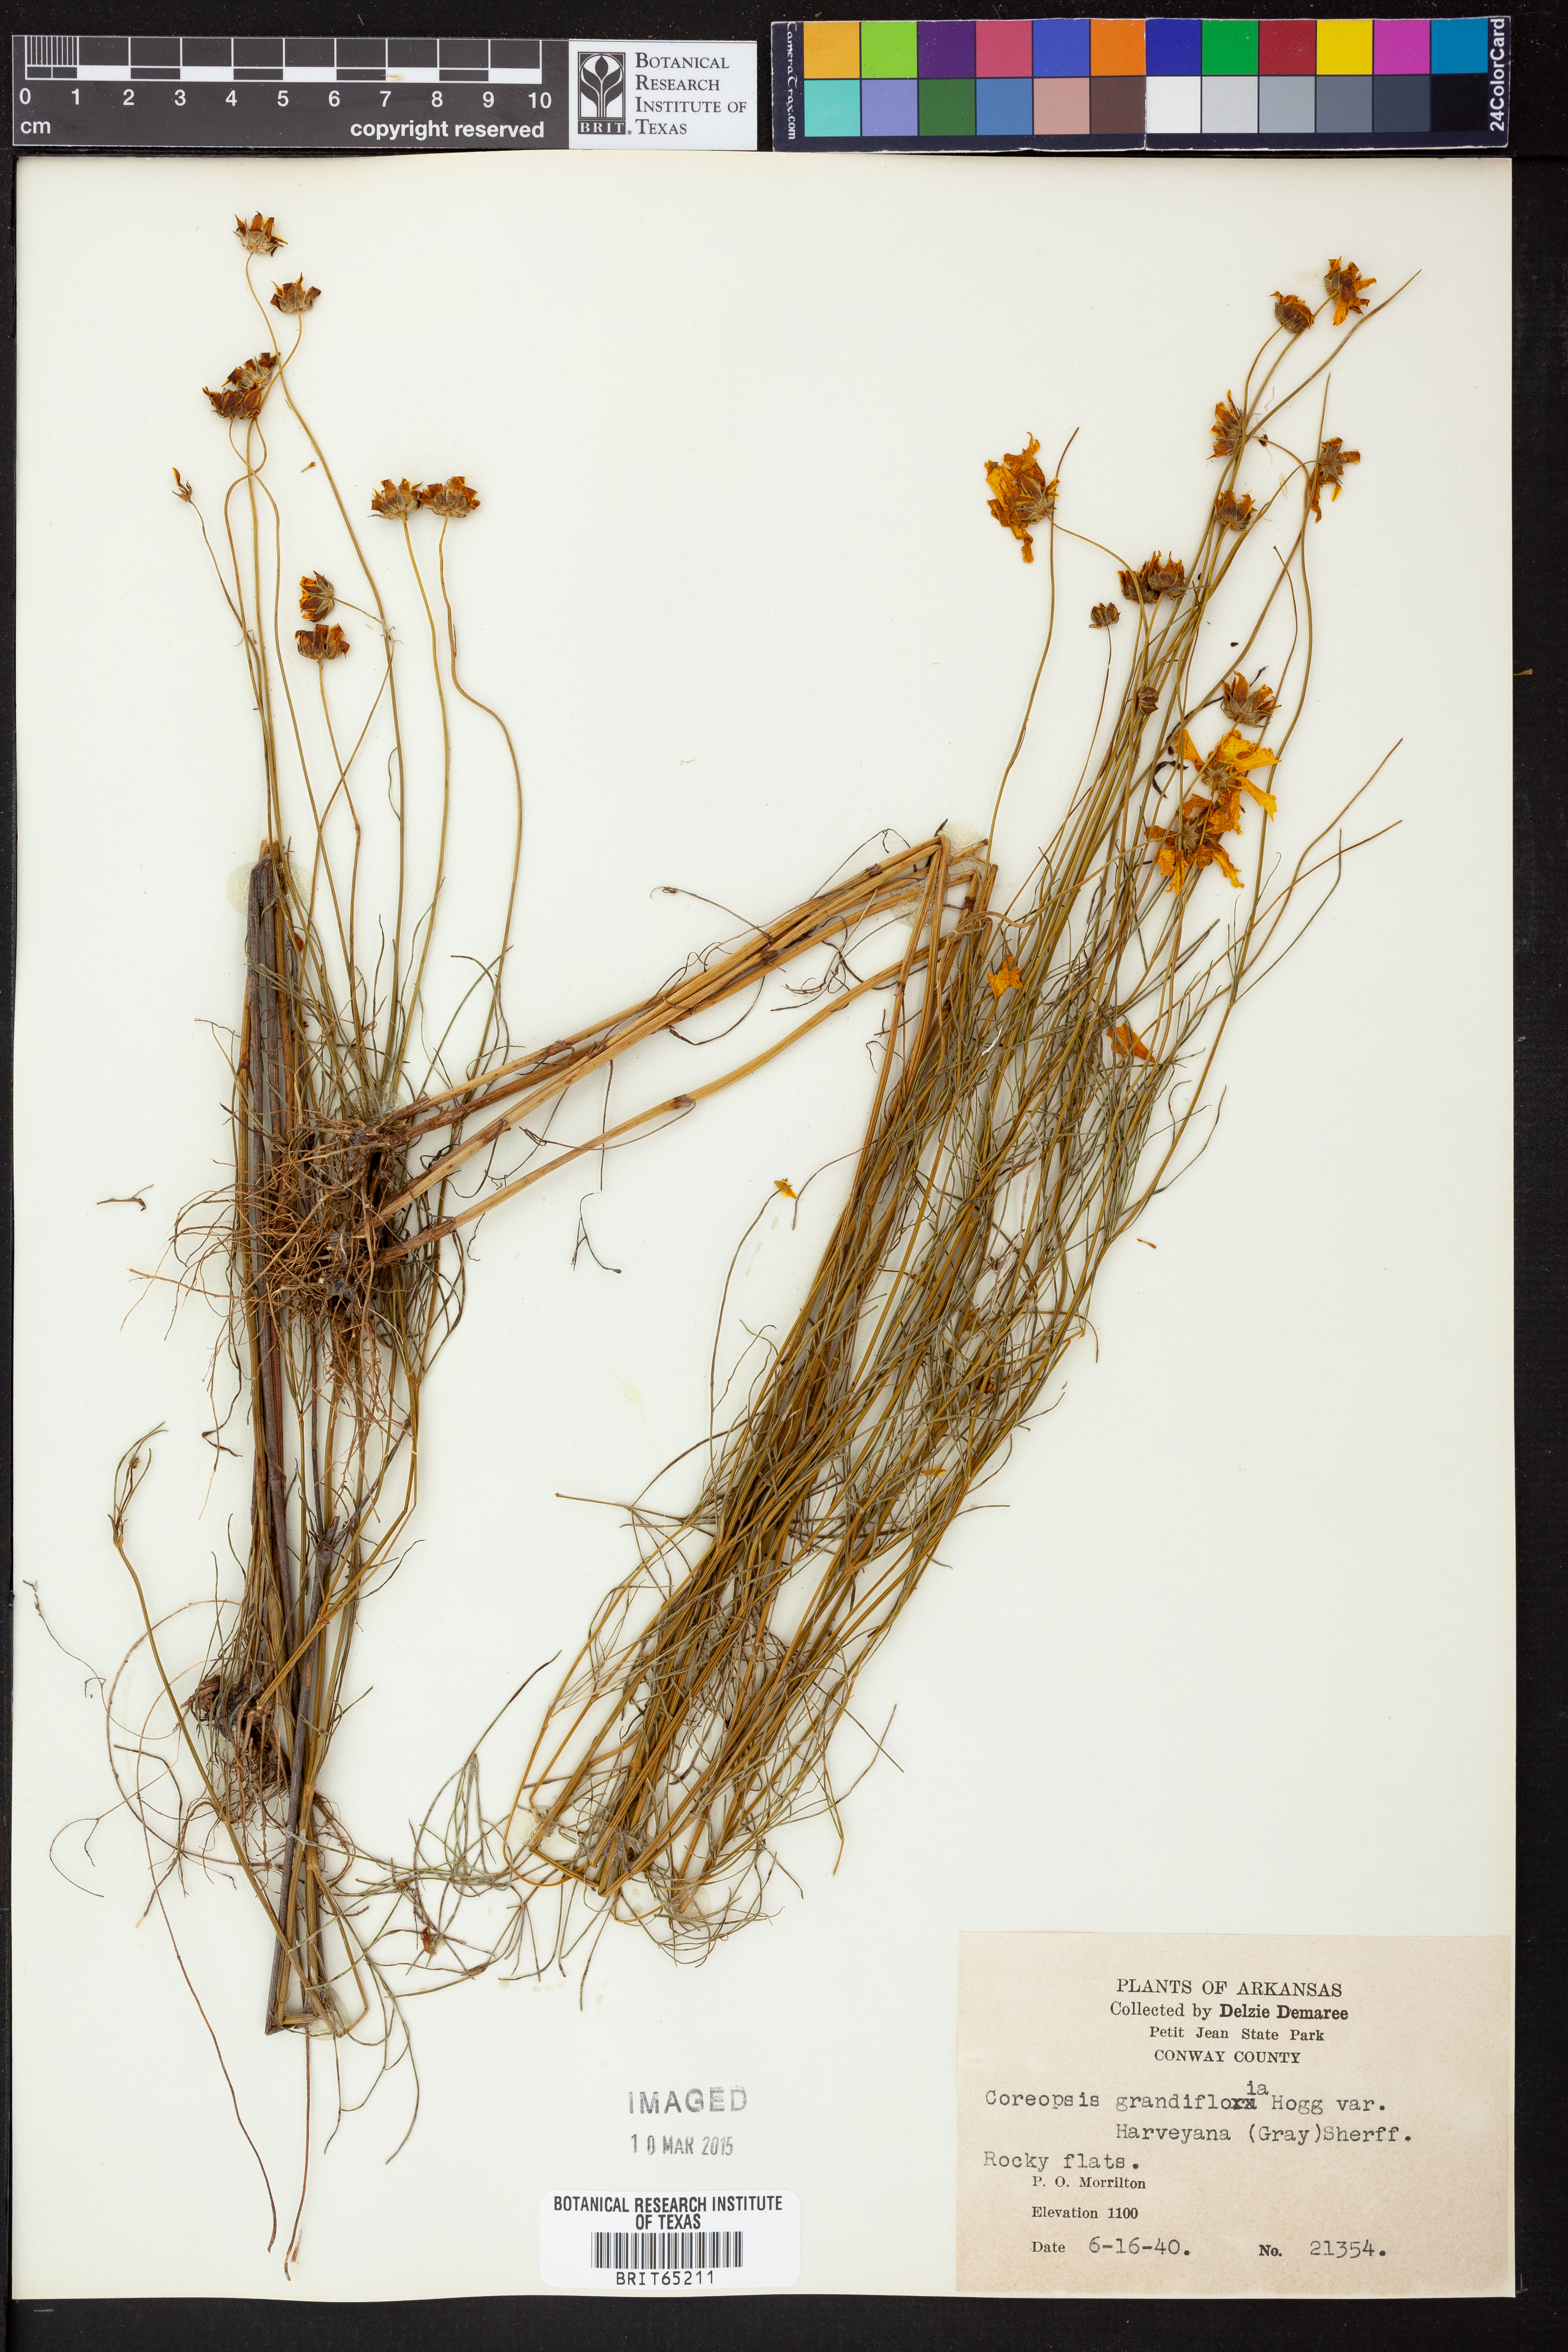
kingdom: Plantae
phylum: Tracheophyta
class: Magnoliopsida
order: Asterales
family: Asteraceae
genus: Coreopsis
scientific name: Coreopsis grandiflora
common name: Large-flowered tickseed
